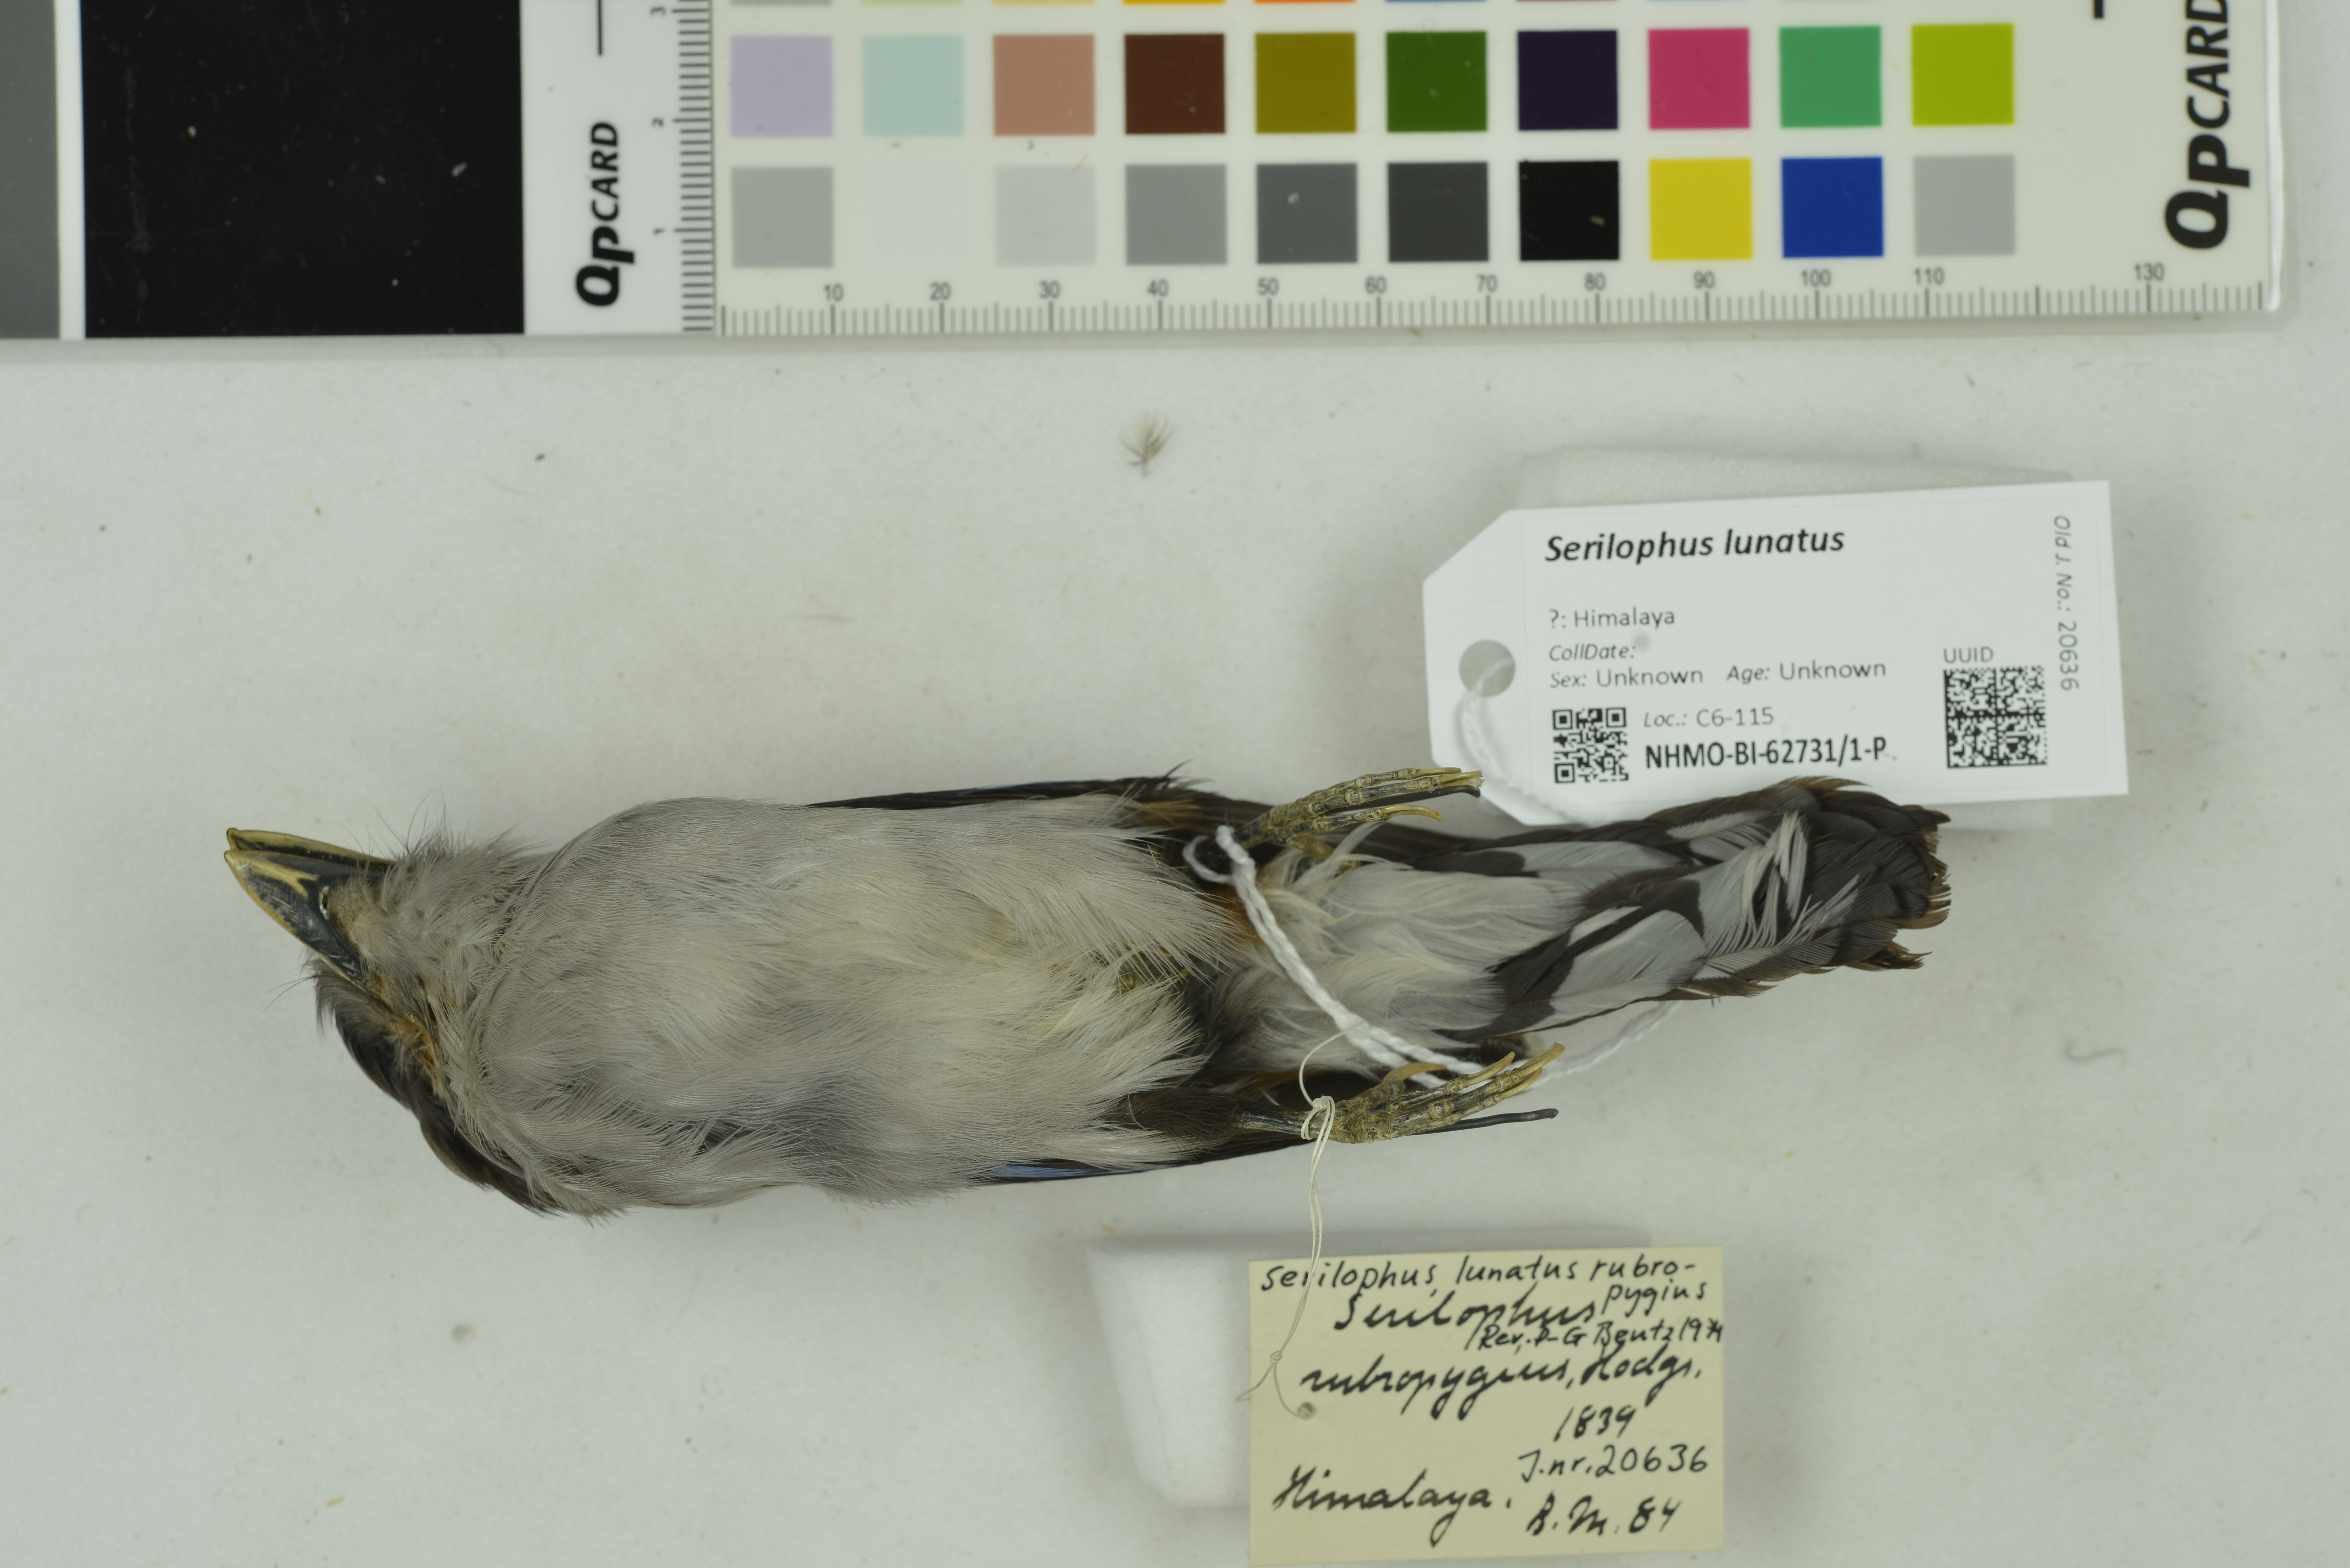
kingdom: Animalia
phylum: Chordata
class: Aves
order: Passeriformes
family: Eurylaimidae
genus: Serilophus
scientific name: Serilophus lunatus
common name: Silver-breasted broadbill
